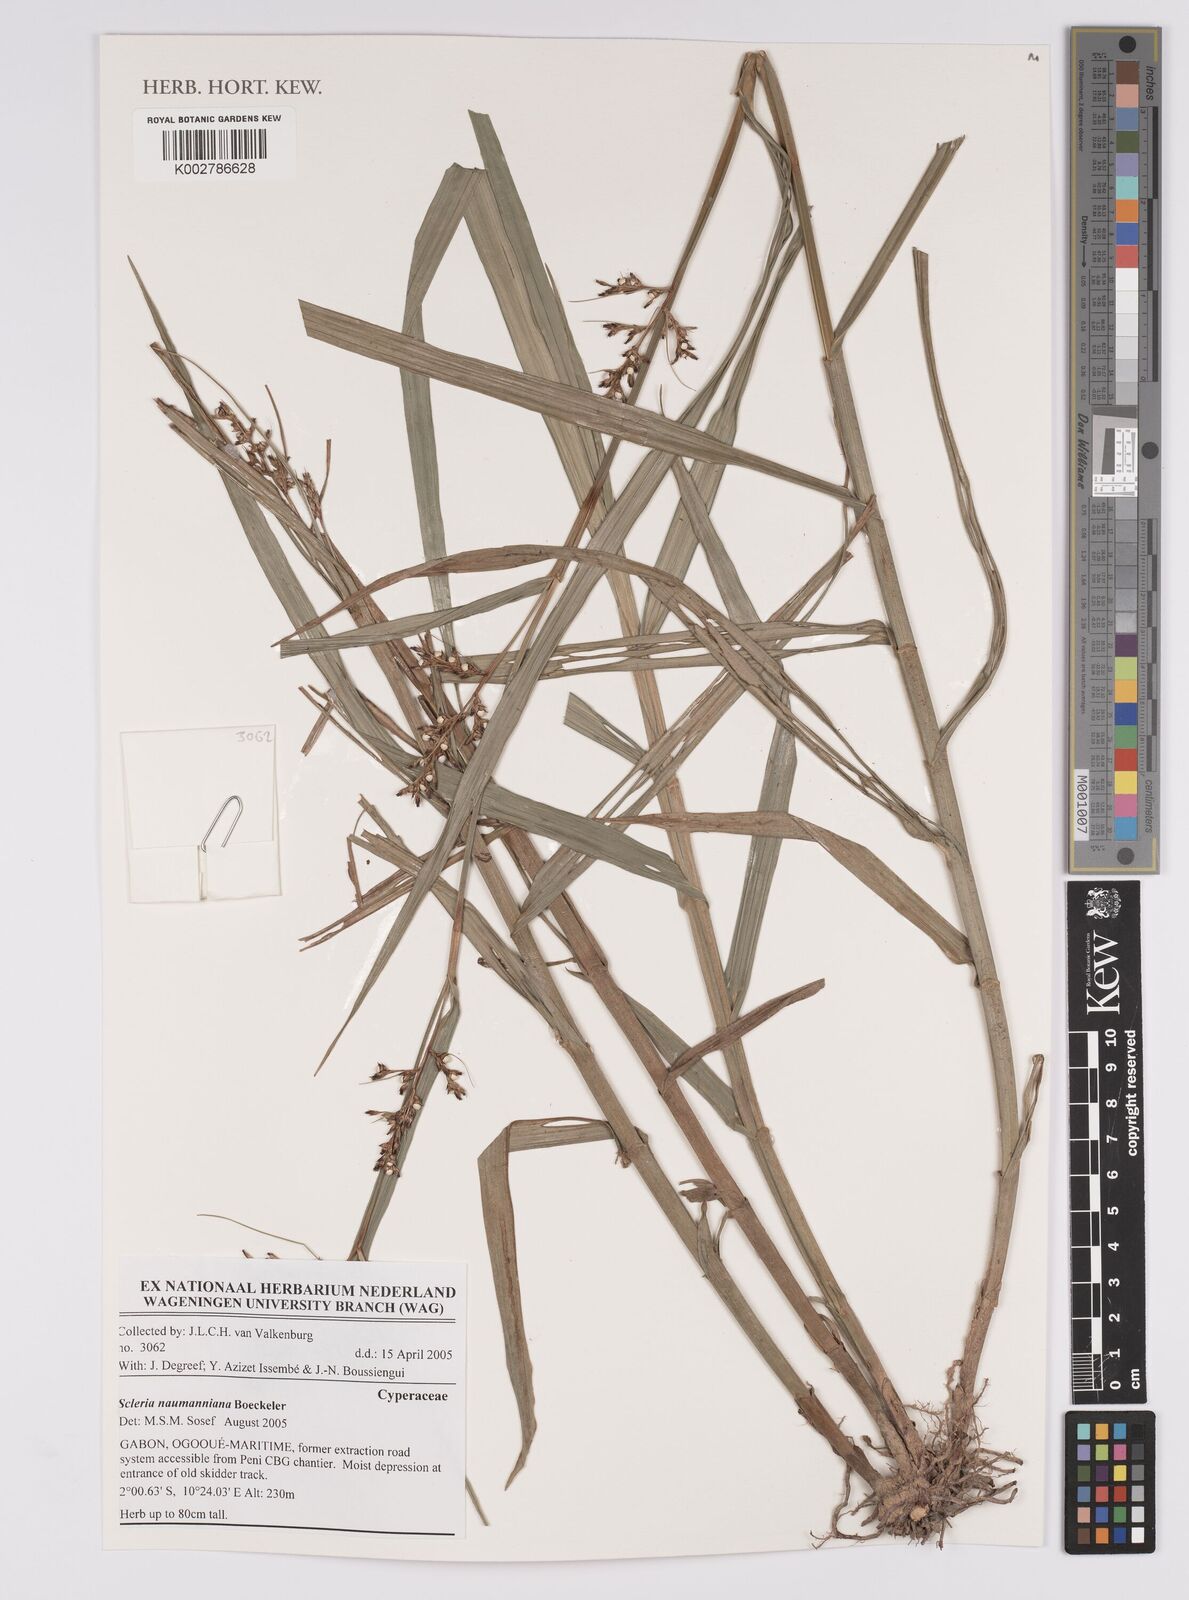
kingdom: Plantae
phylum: Tracheophyta
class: Liliopsida
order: Poales
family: Cyperaceae
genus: Scleria
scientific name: Scleria naumanniana
